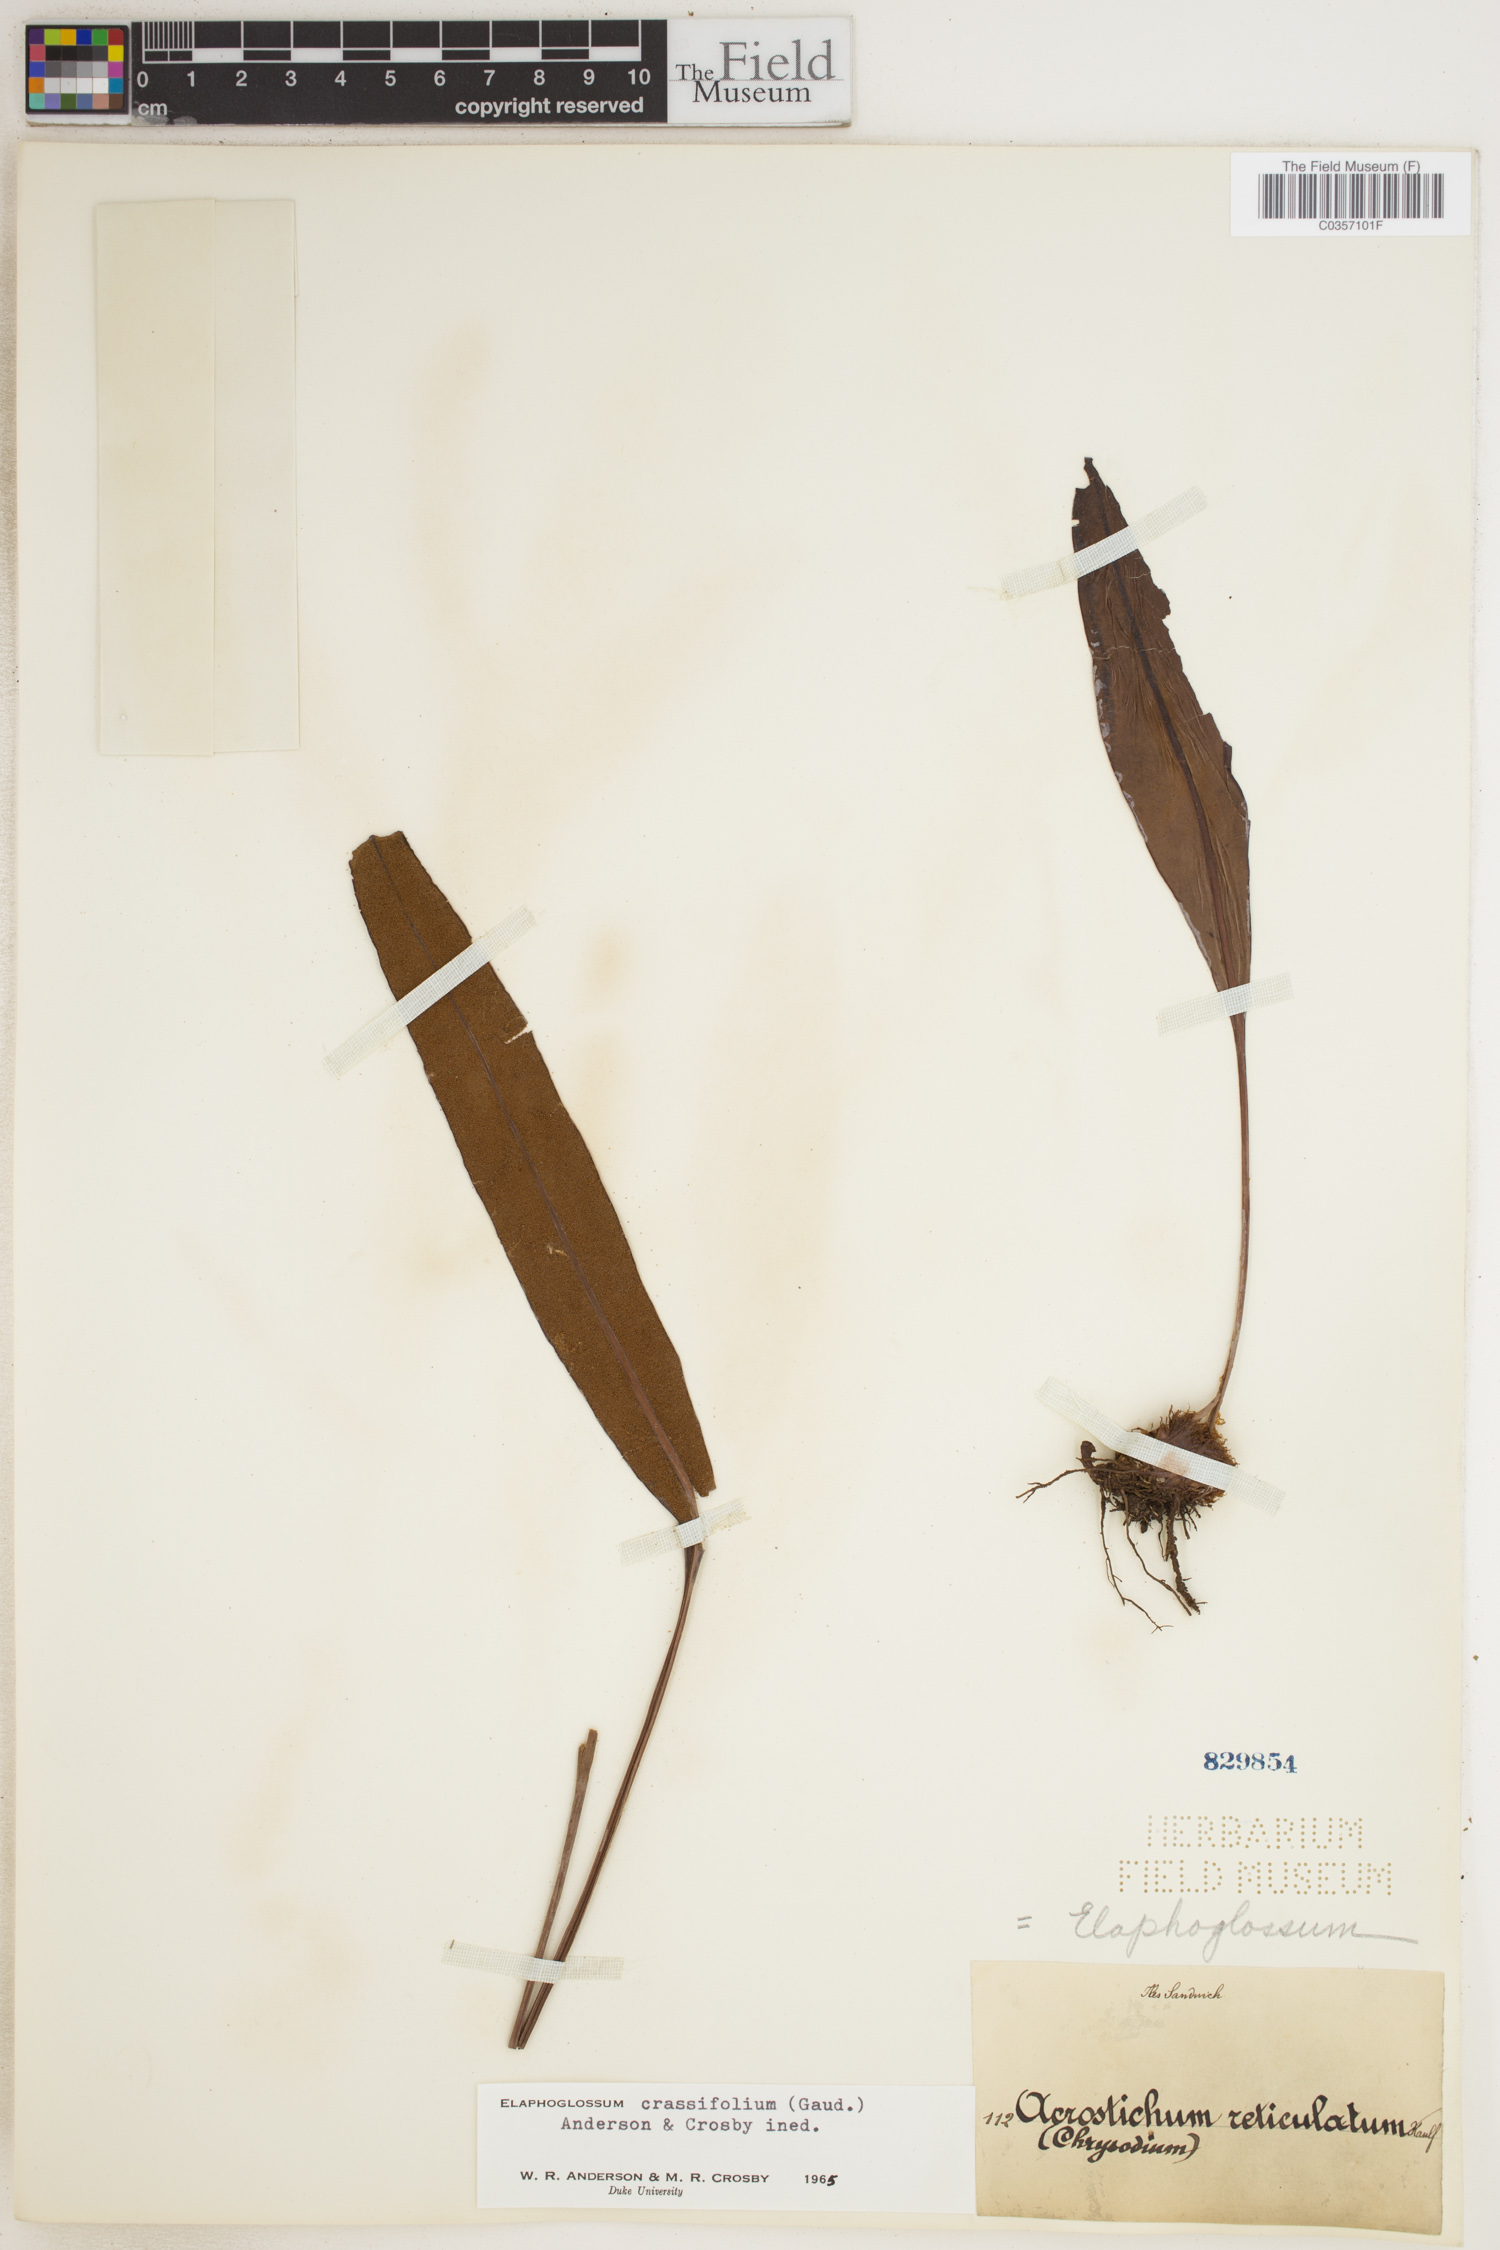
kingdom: Plantae
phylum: Tracheophyta
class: Polypodiopsida
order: Polypodiales
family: Dryopteridaceae
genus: Elaphoglossum
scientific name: Elaphoglossum crassifolium
